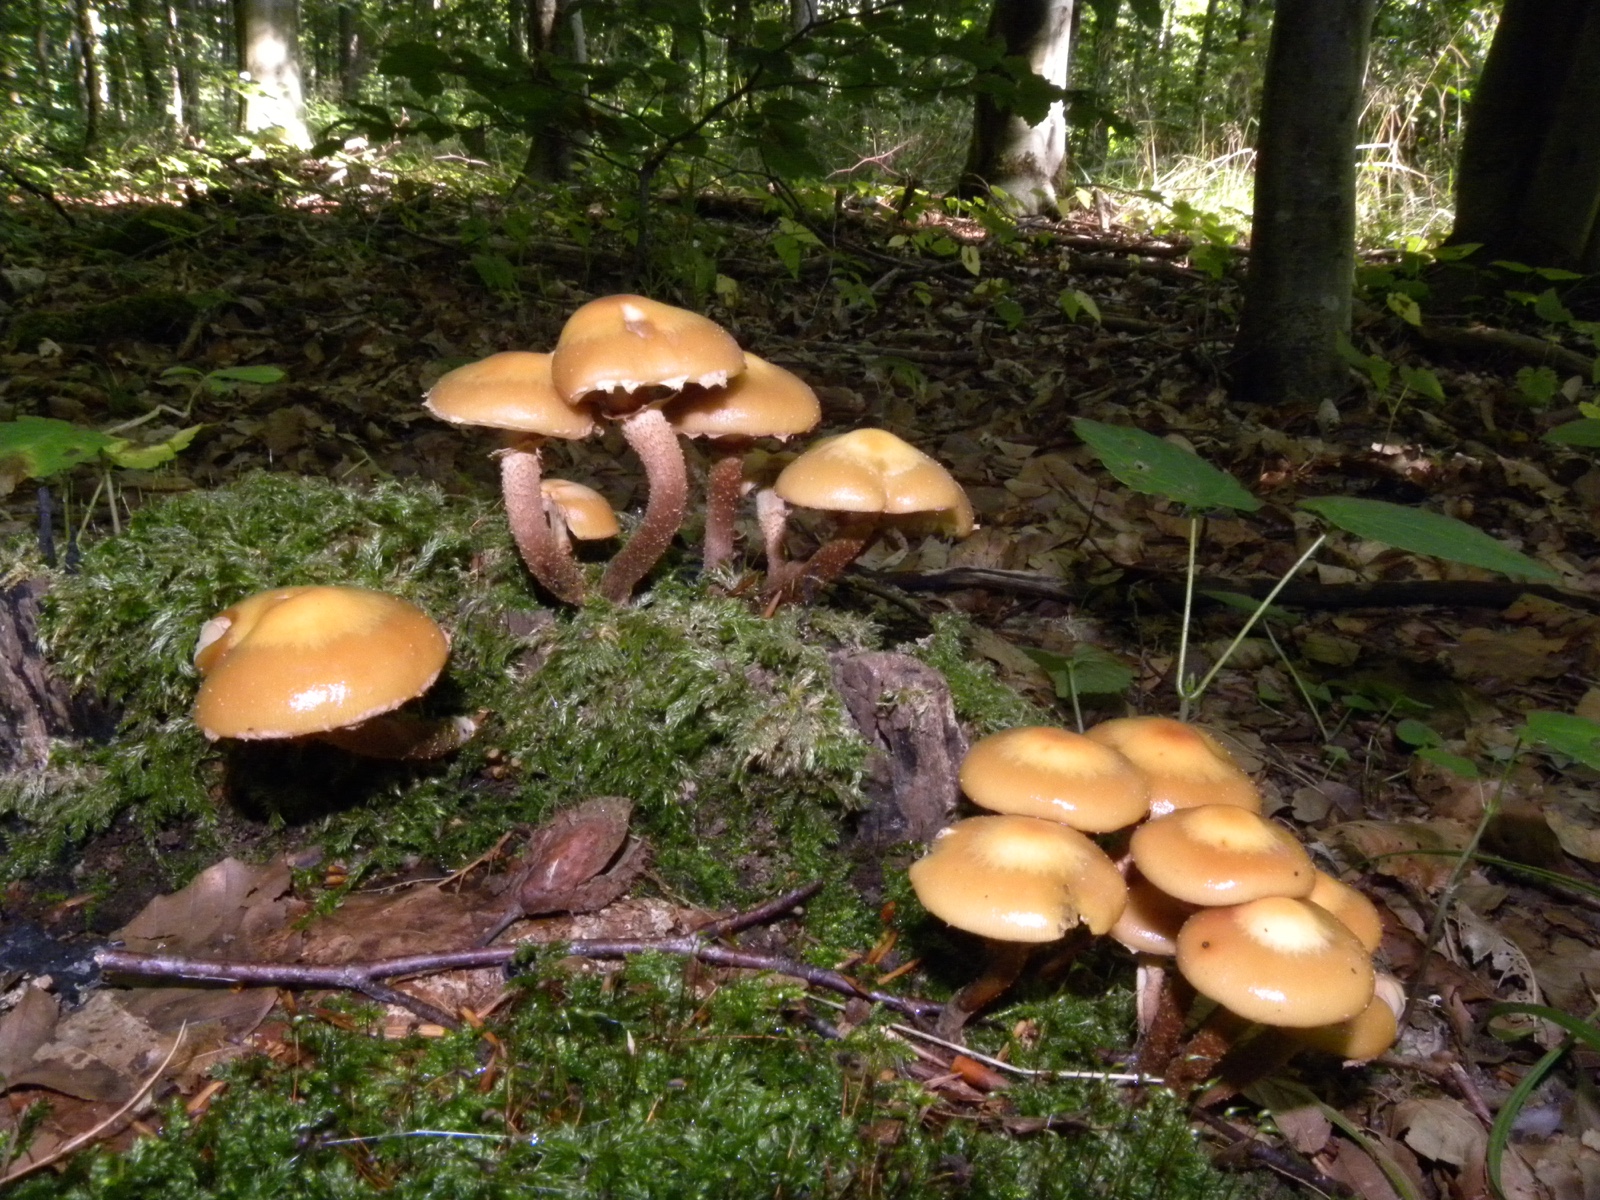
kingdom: Fungi
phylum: Basidiomycota
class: Agaricomycetes
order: Agaricales
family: Strophariaceae
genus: Kuehneromyces
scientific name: Kuehneromyces mutabilis
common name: foranderlig skælhat
